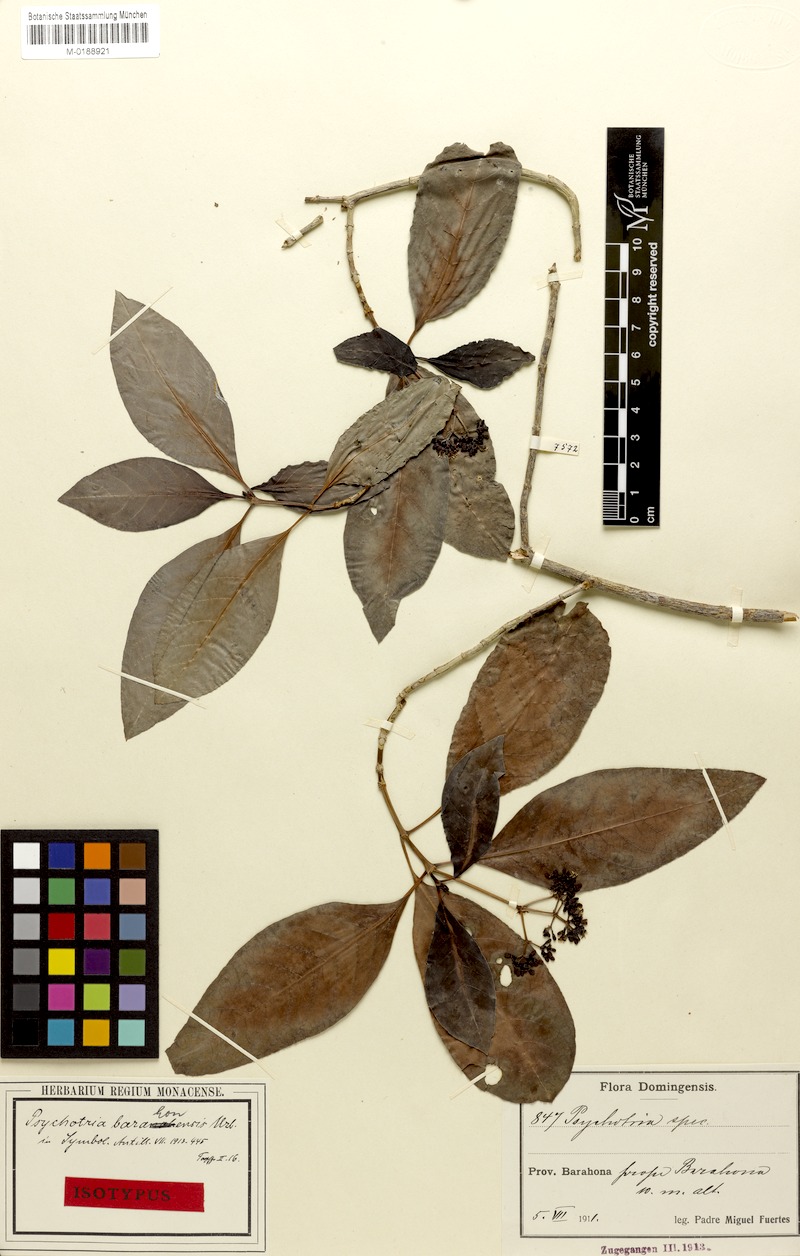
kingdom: Plantae
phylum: Tracheophyta
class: Magnoliopsida
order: Gentianales
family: Rubiaceae
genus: Psychotria
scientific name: Psychotria glabrata
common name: Browne's wild coffee
